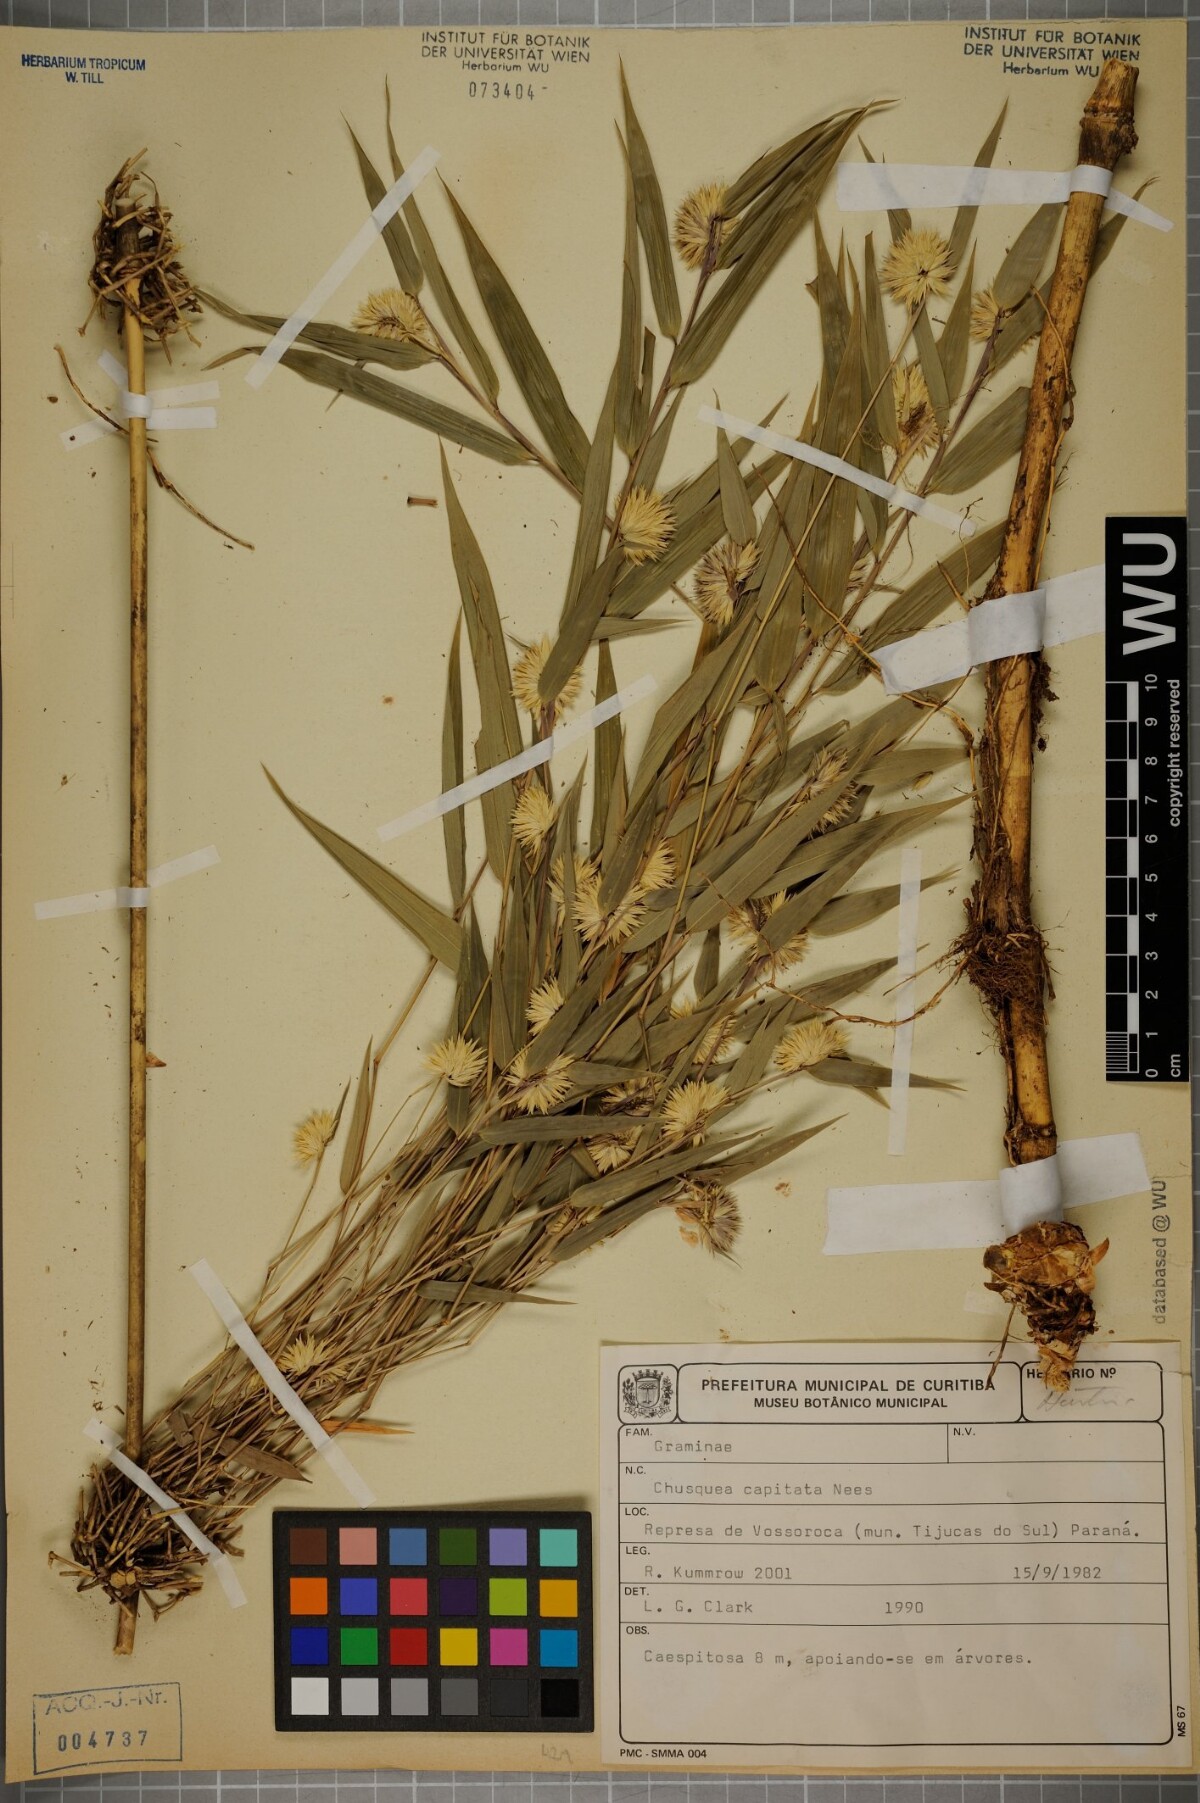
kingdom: Plantae
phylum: Tracheophyta
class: Liliopsida
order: Poales
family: Poaceae
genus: Chusquea
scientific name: Chusquea capitata
